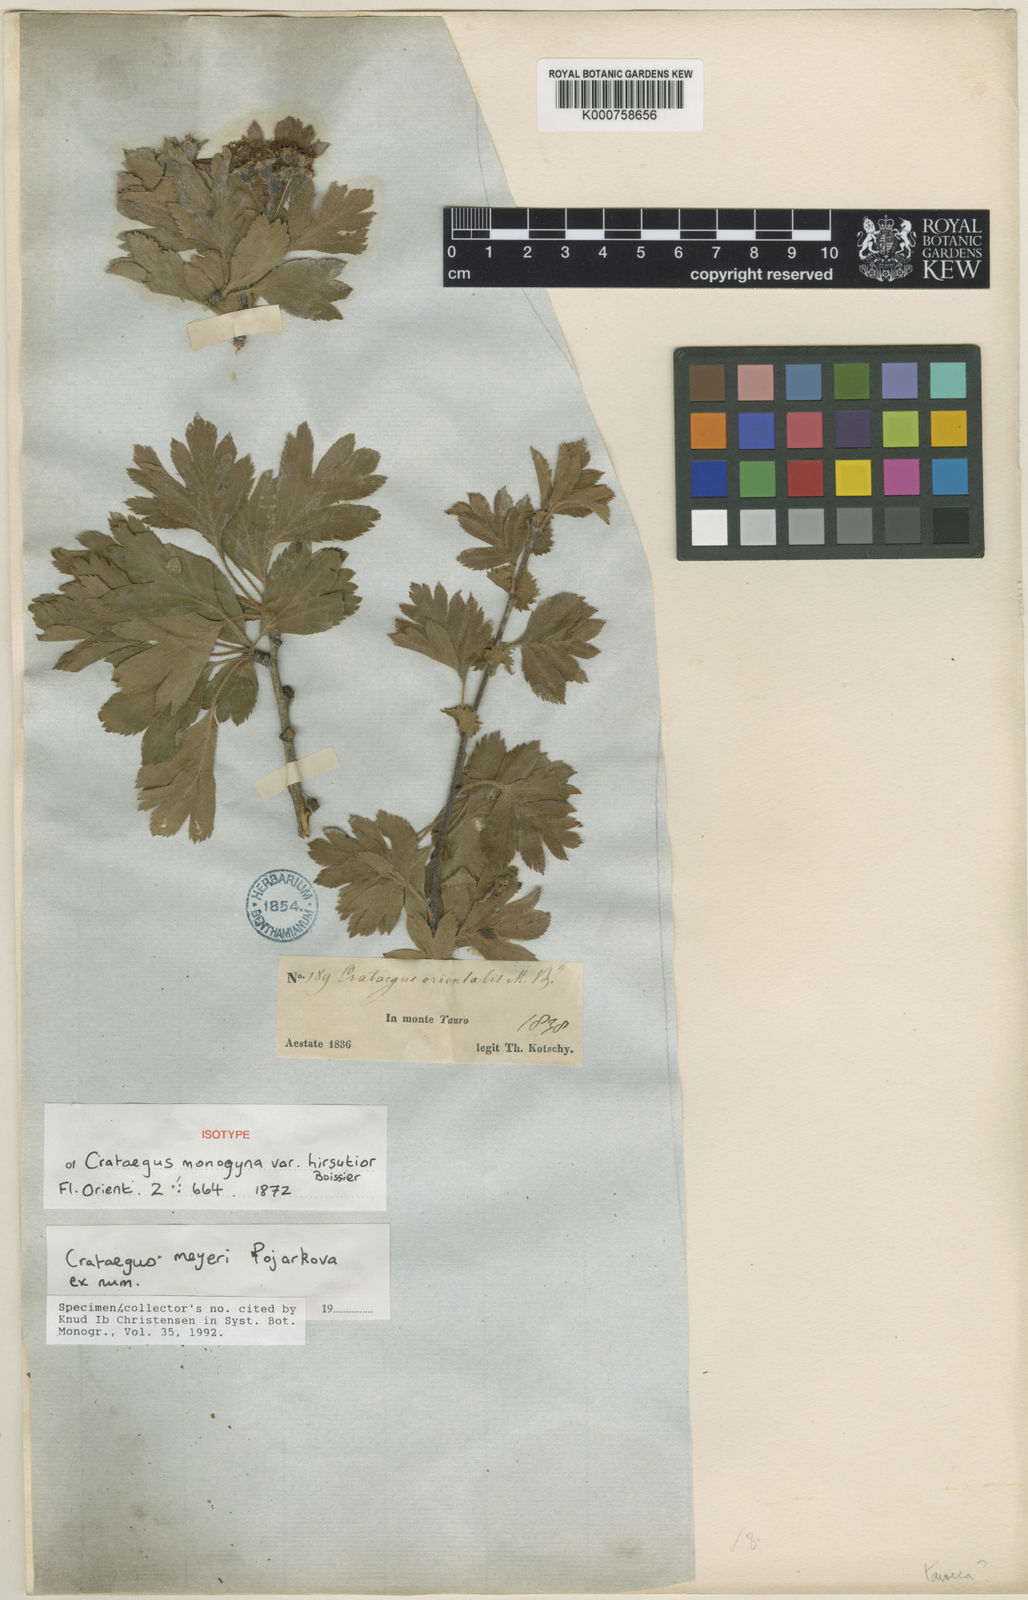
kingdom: Plantae
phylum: Tracheophyta
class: Magnoliopsida
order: Rosales
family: Rosaceae
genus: Crataegus
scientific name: Crataegus meyeri
